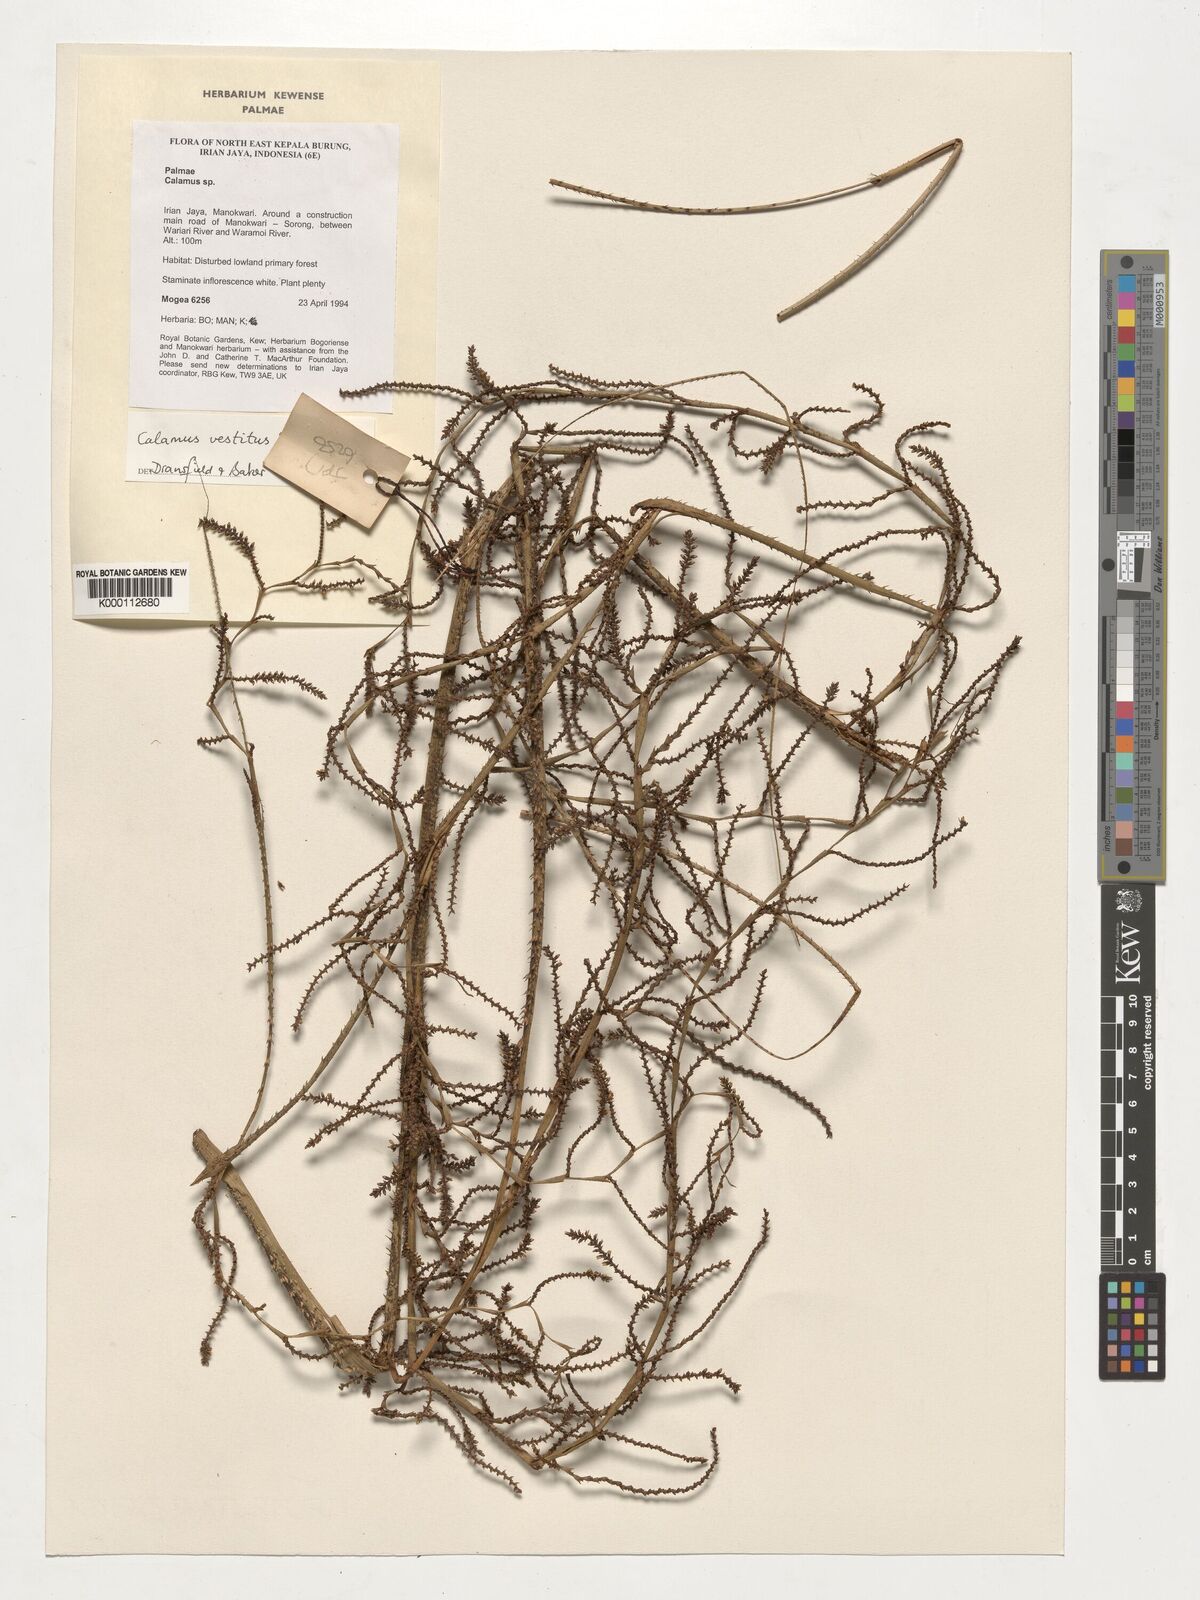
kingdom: Plantae
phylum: Tracheophyta
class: Liliopsida
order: Arecales
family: Arecaceae
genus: Calamus
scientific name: Calamus vestitus
